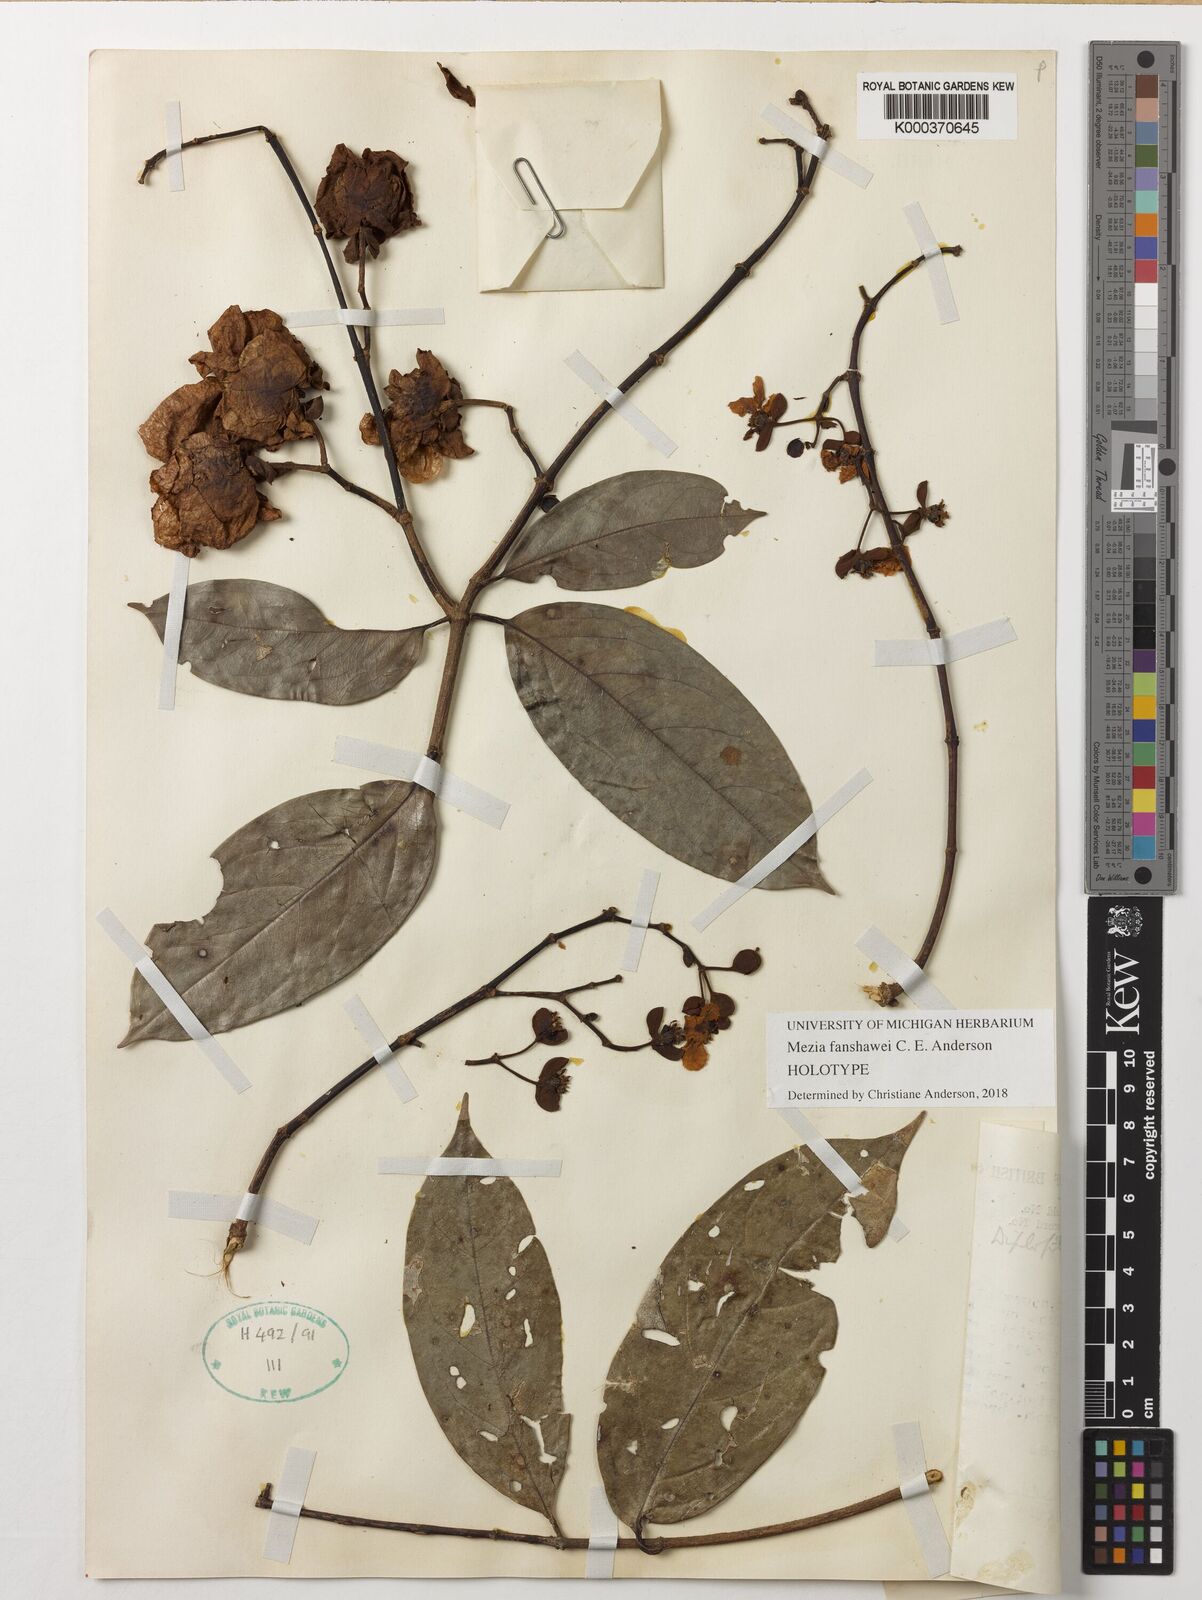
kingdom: Plantae
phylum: Tracheophyta
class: Magnoliopsida
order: Malpighiales
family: Malpighiaceae
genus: Mezia
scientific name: Mezia fanshawei
